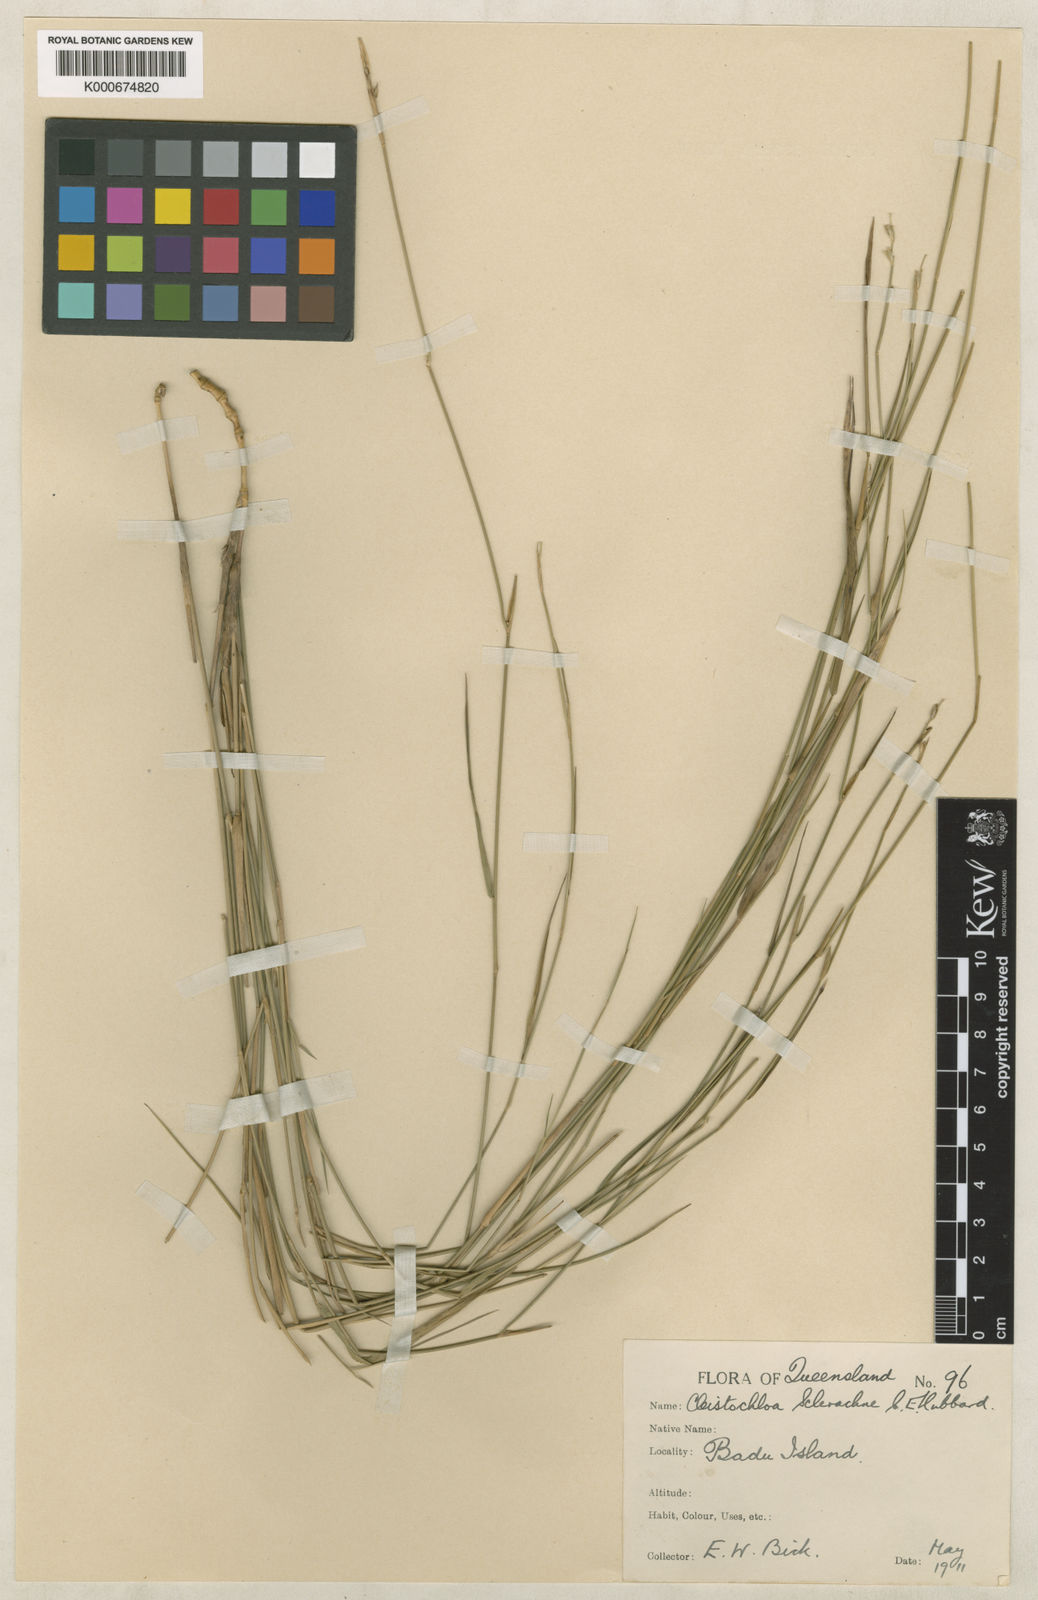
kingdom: Plantae
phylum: Tracheophyta
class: Liliopsida
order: Poales
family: Poaceae
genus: Cleistochloa
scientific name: Cleistochloa sclerachne
